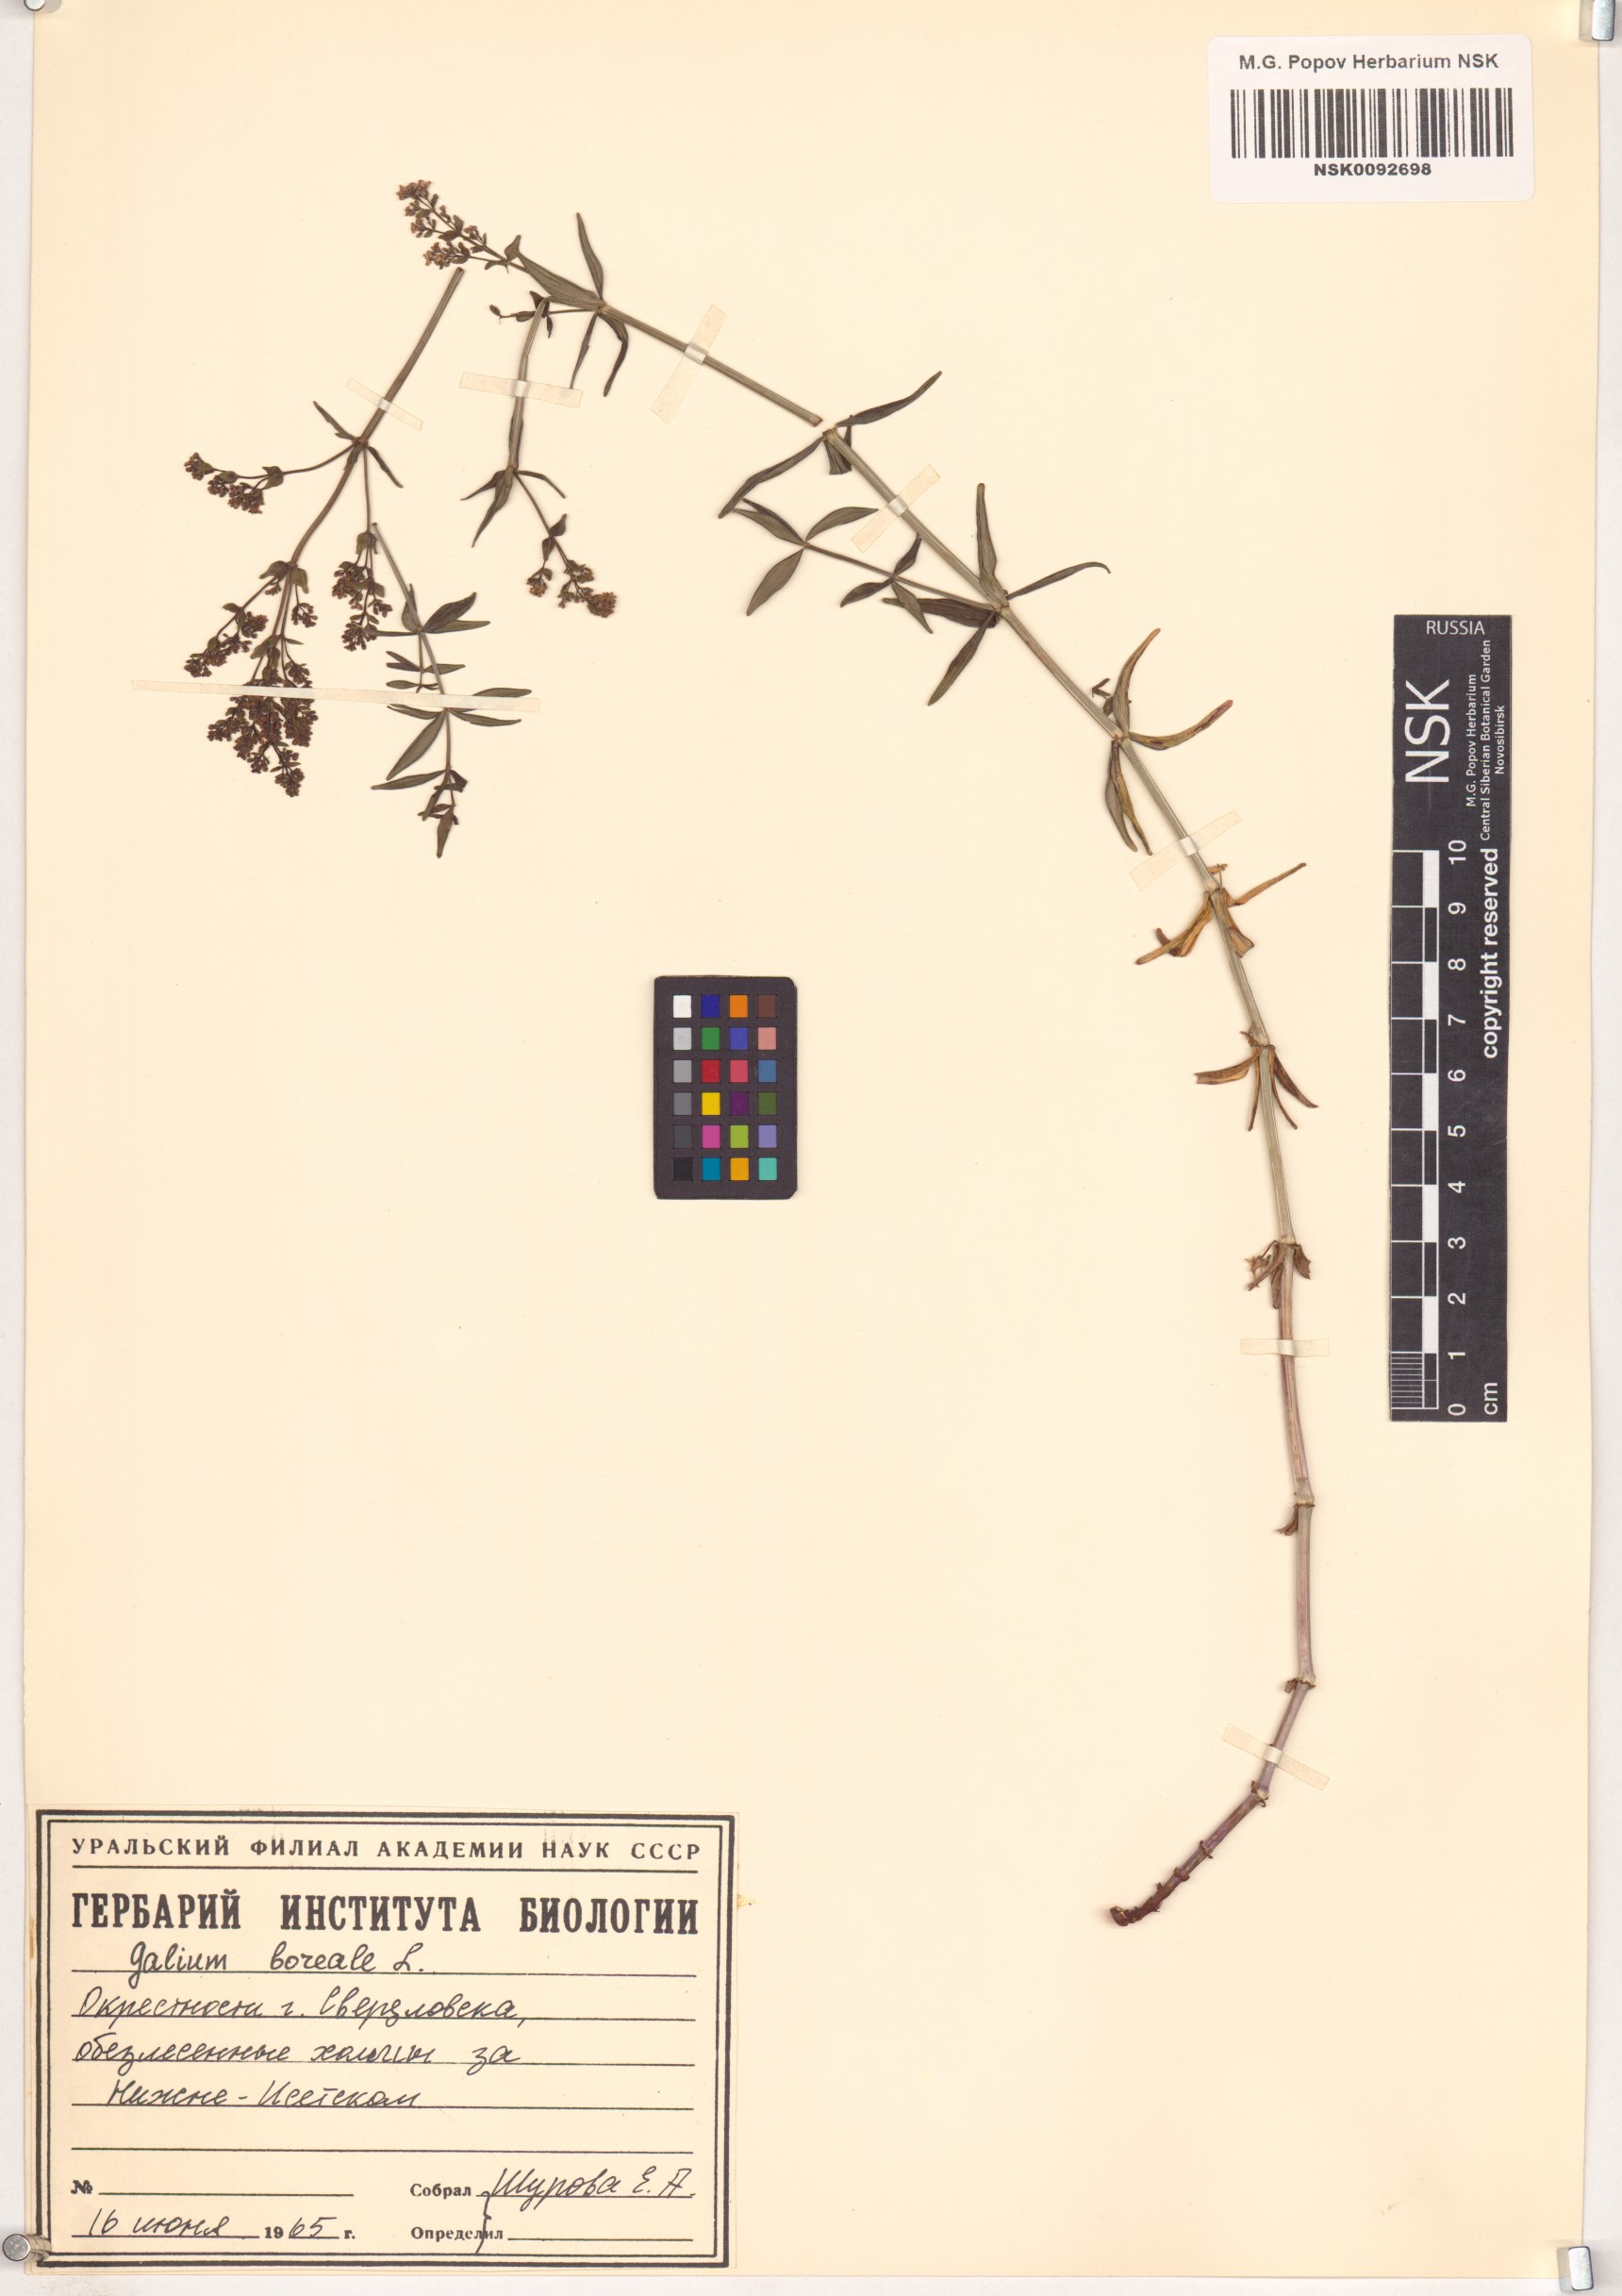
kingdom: Plantae
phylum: Tracheophyta
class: Magnoliopsida
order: Gentianales
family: Rubiaceae
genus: Galium
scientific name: Galium boreale
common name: Northern bedstraw
